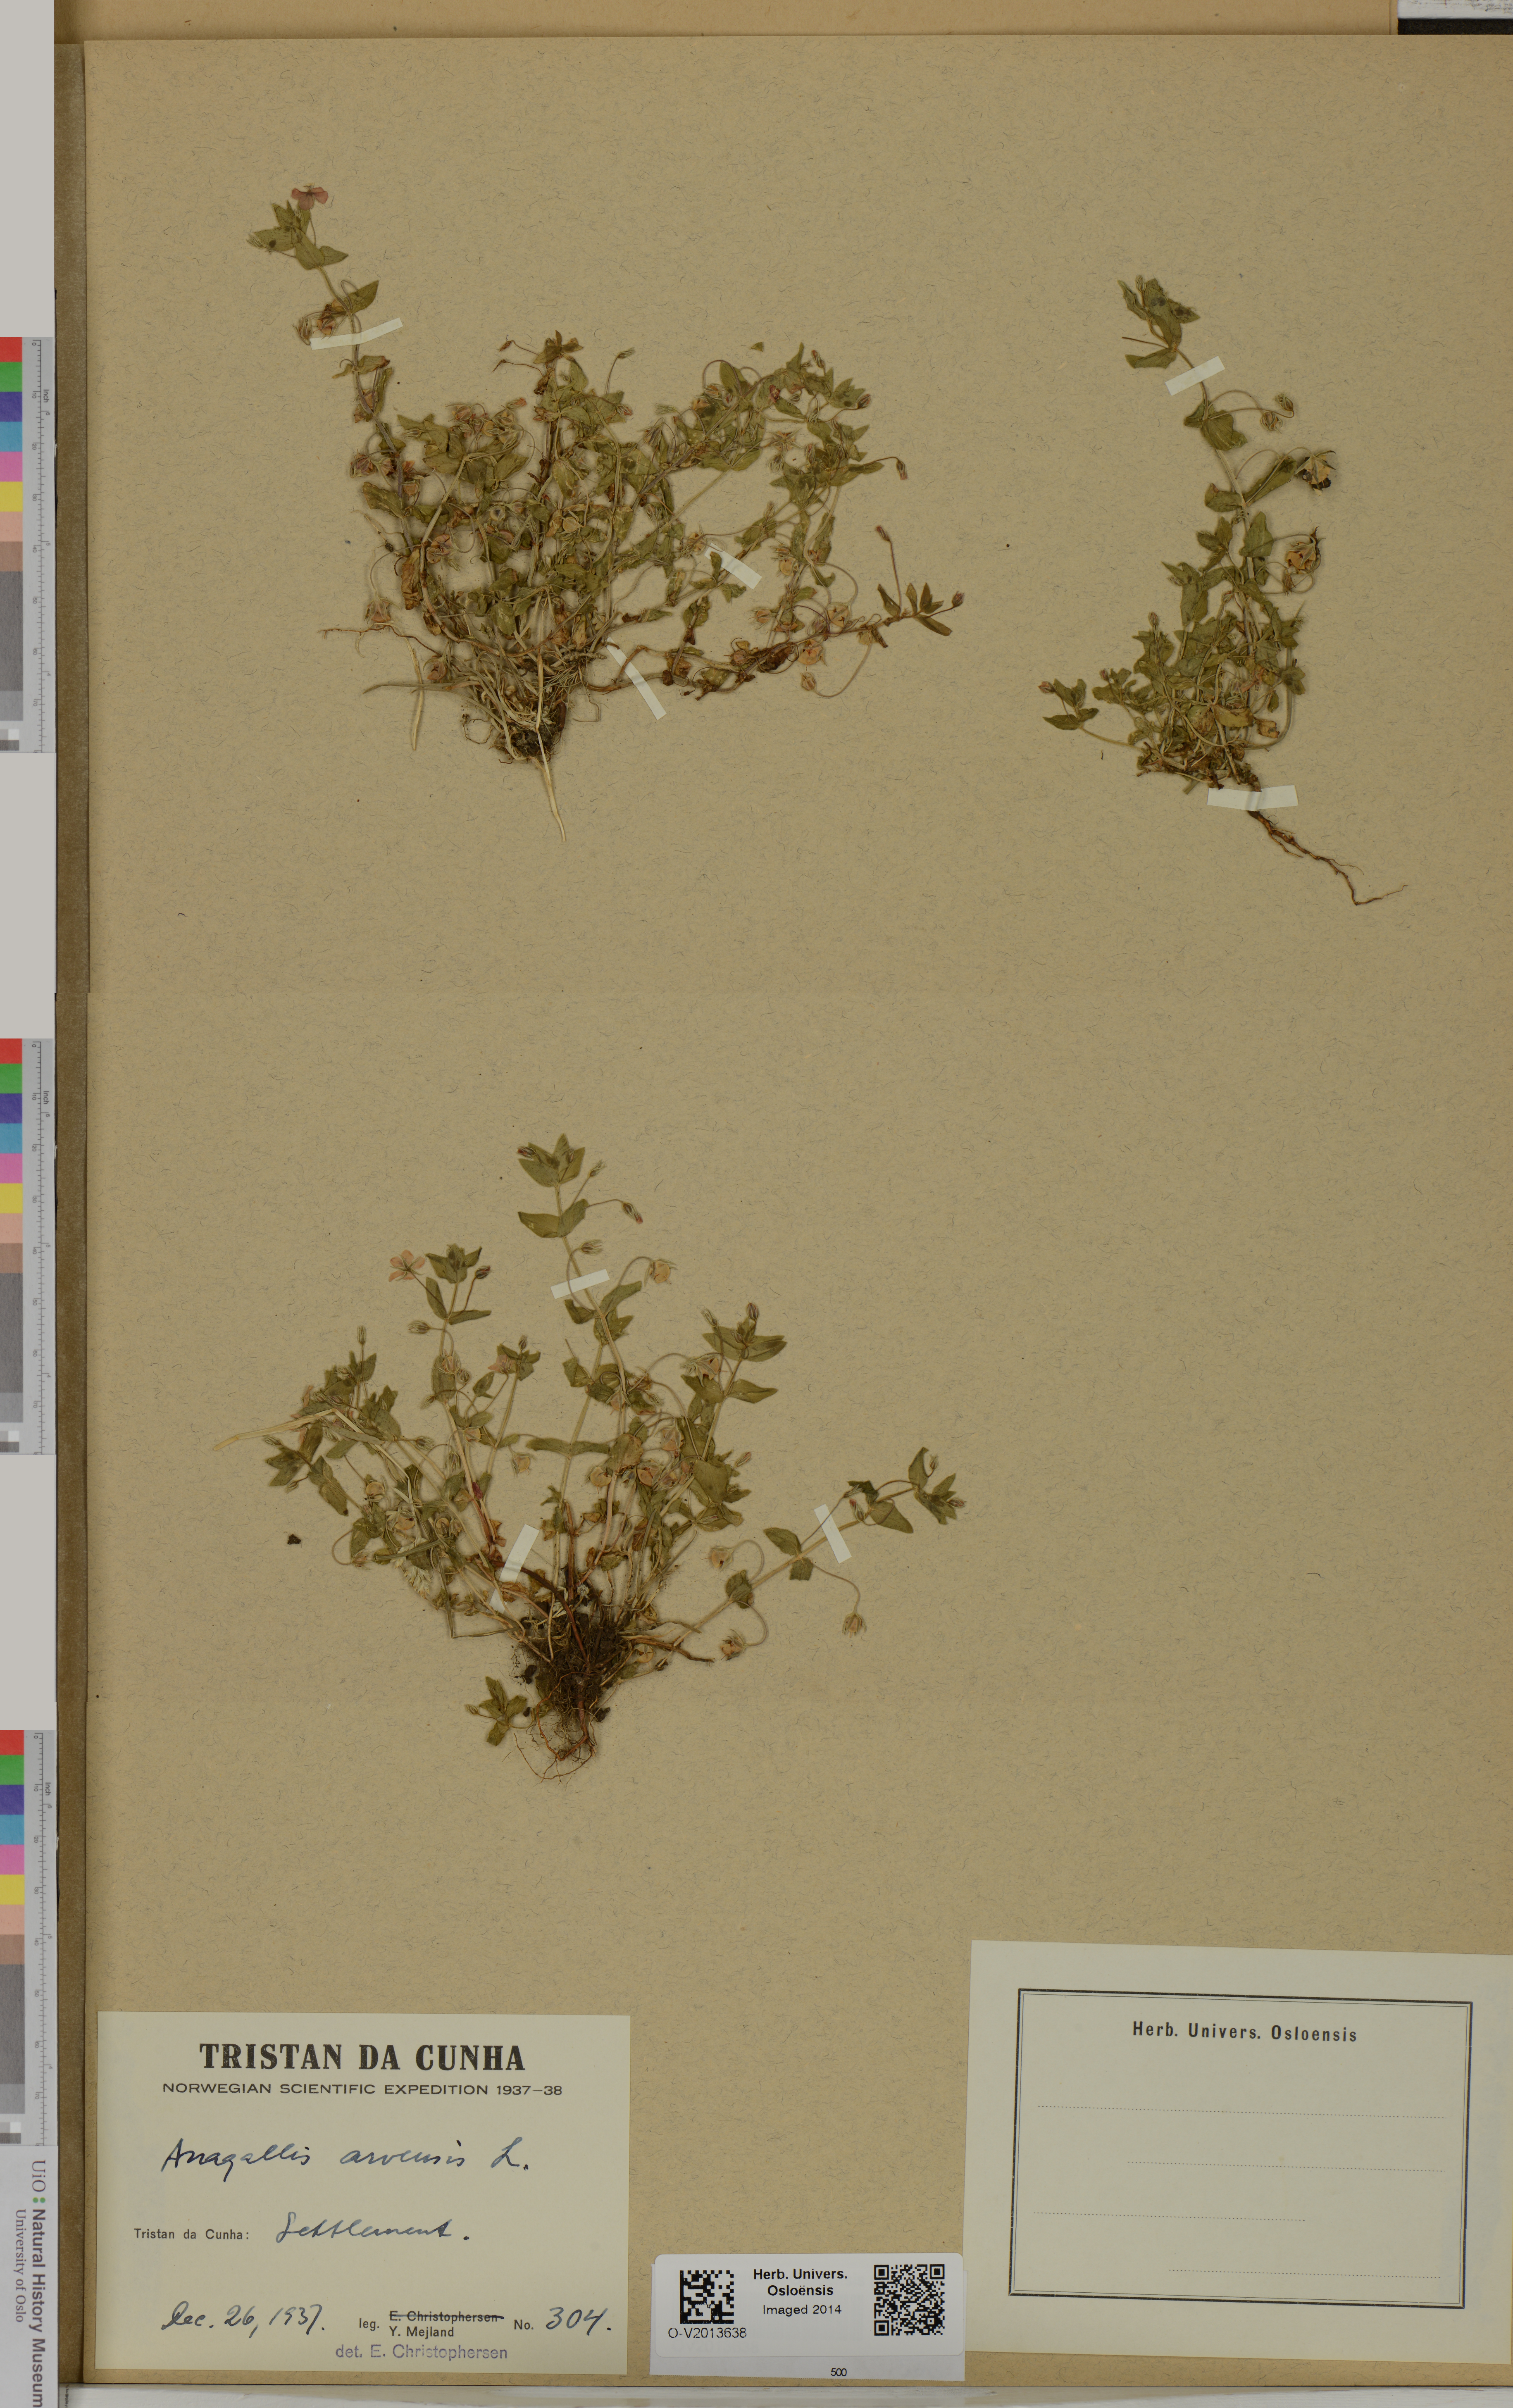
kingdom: Plantae
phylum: Tracheophyta
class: Magnoliopsida
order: Ericales
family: Primulaceae
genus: Lysimachia
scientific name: Lysimachia arvensis
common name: Scarlet pimpernel
